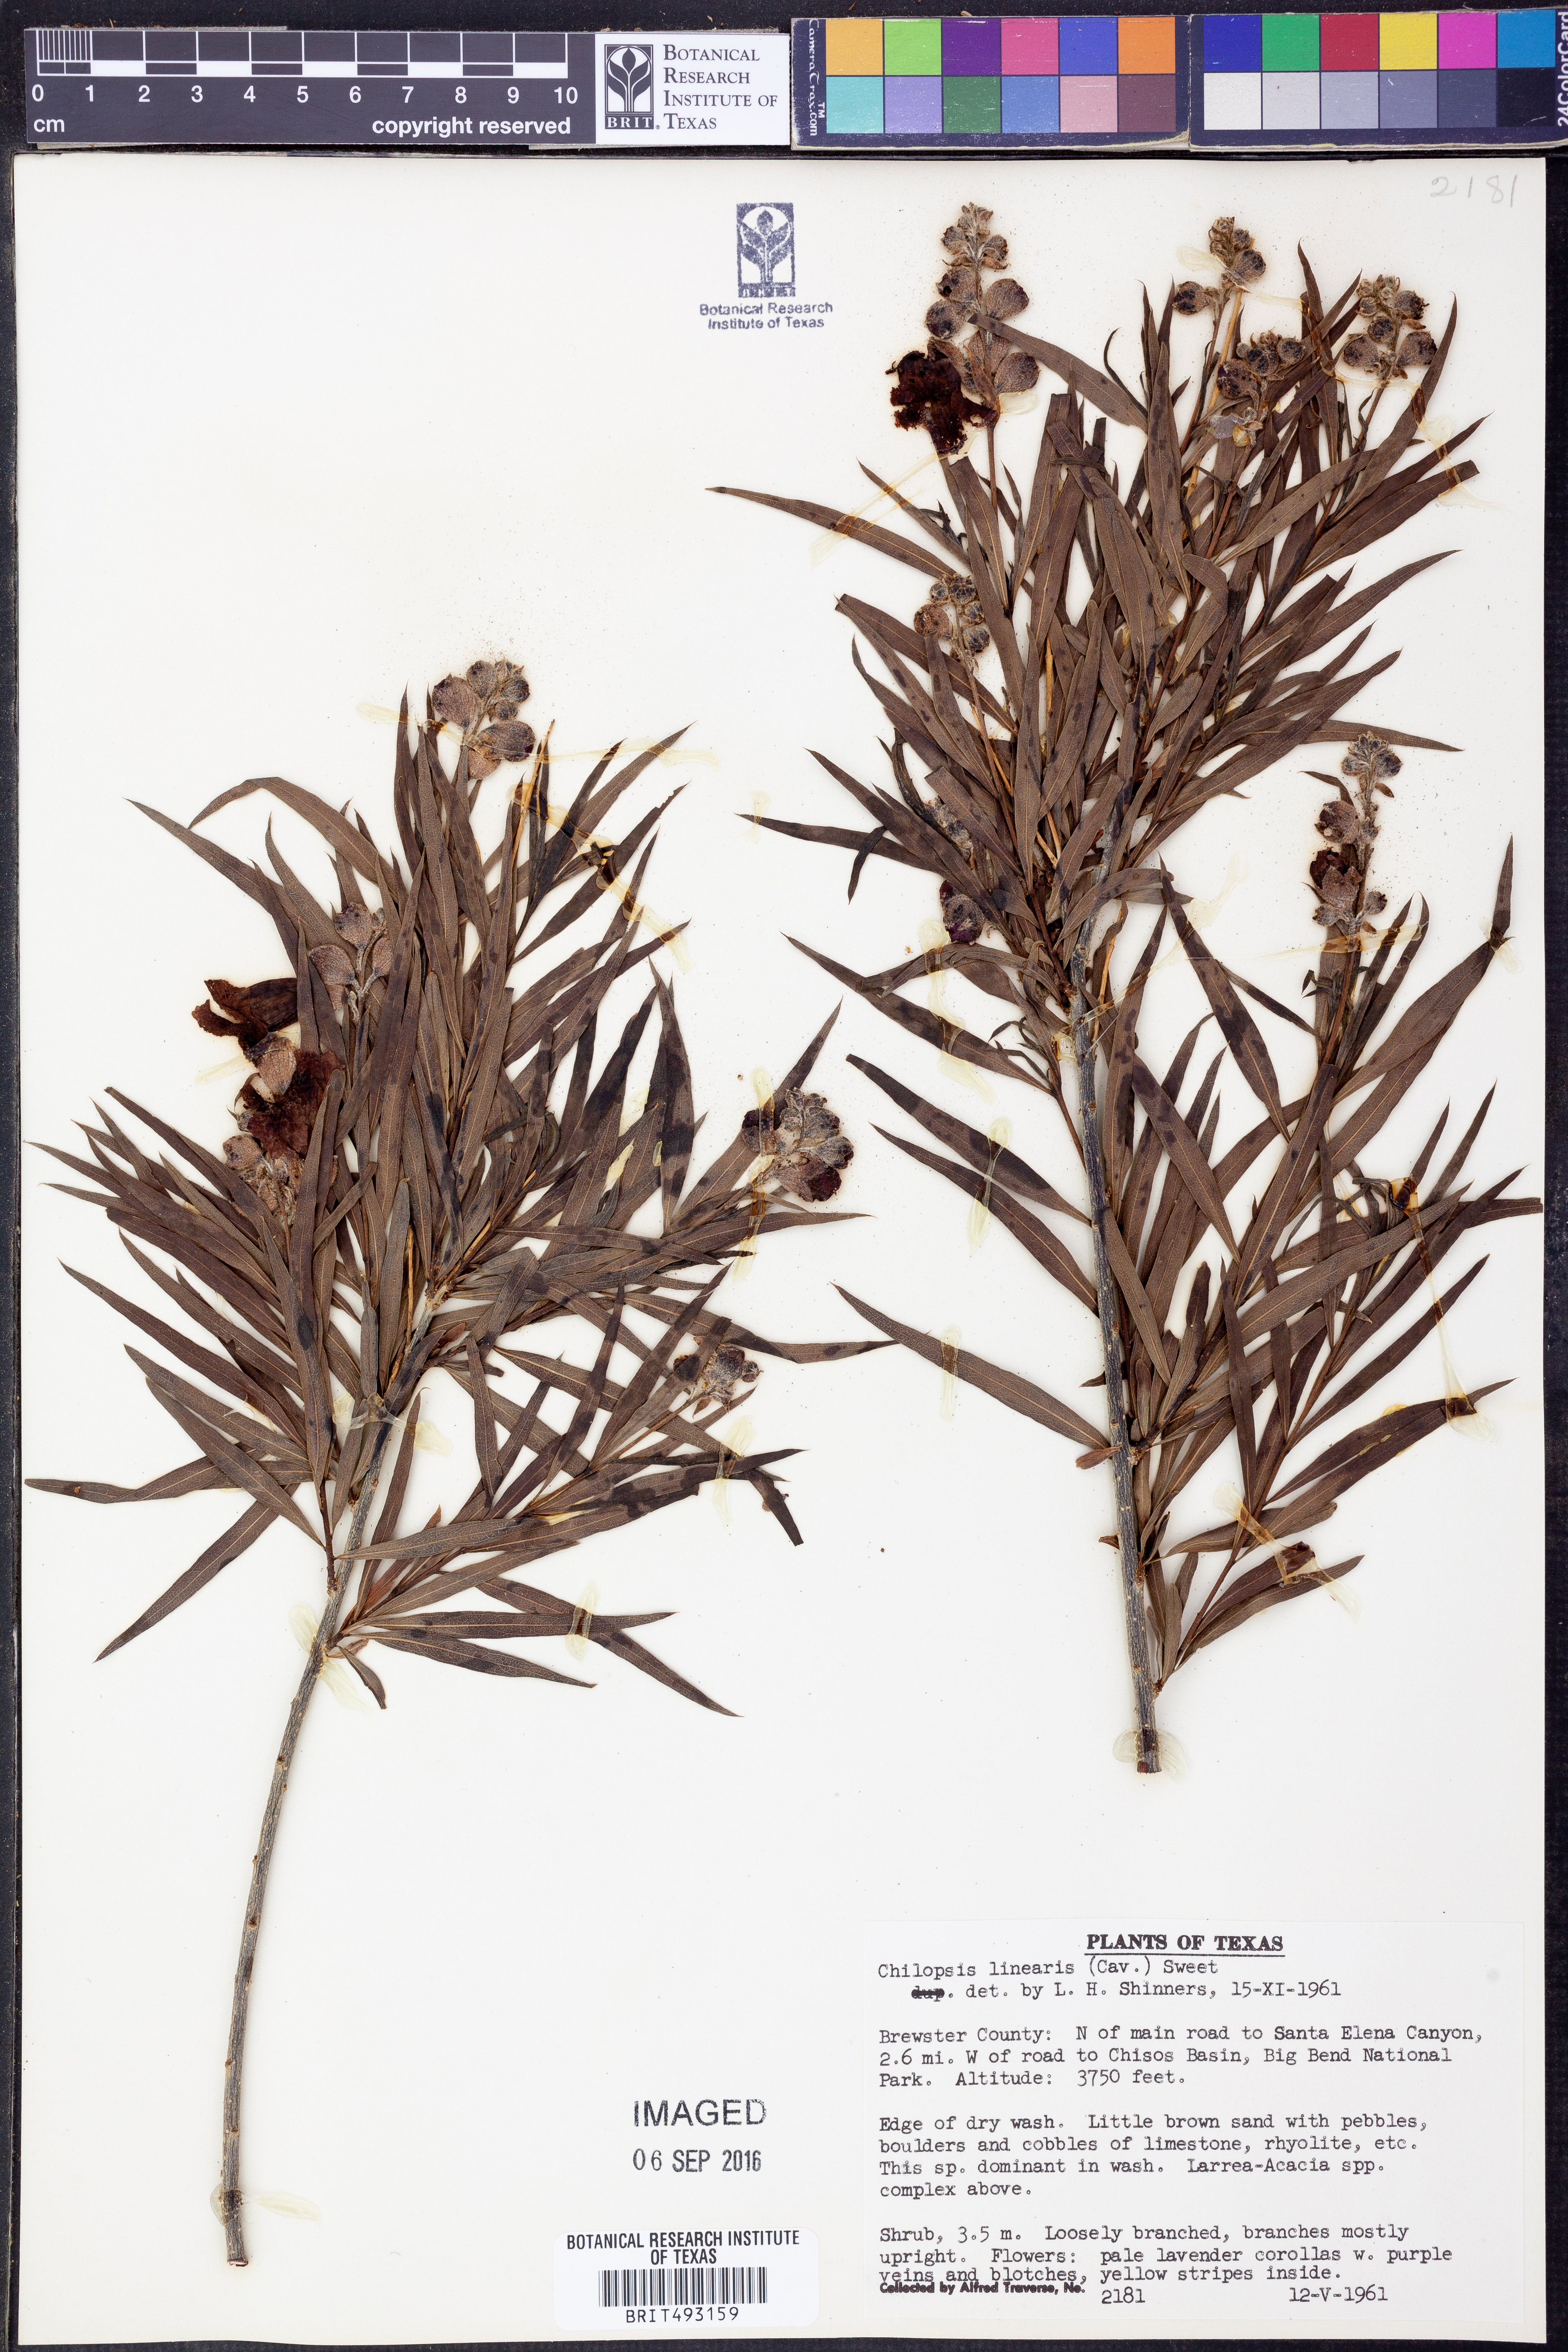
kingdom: Plantae
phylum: Tracheophyta
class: Magnoliopsida
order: Lamiales
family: Bignoniaceae
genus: Chilopsis
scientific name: Chilopsis linearis
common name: Desert-willow
